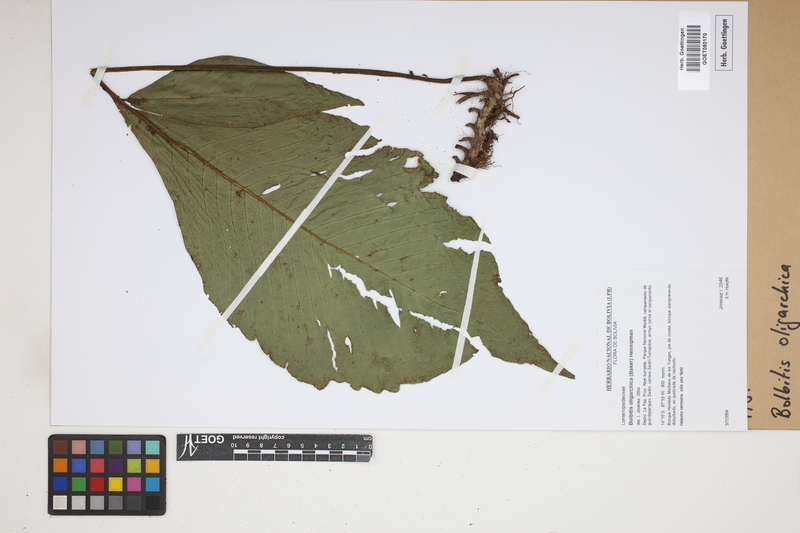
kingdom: Plantae
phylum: Tracheophyta
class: Polypodiopsida
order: Polypodiales
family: Dryopteridaceae
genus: Mickelia
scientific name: Mickelia oligarchica
